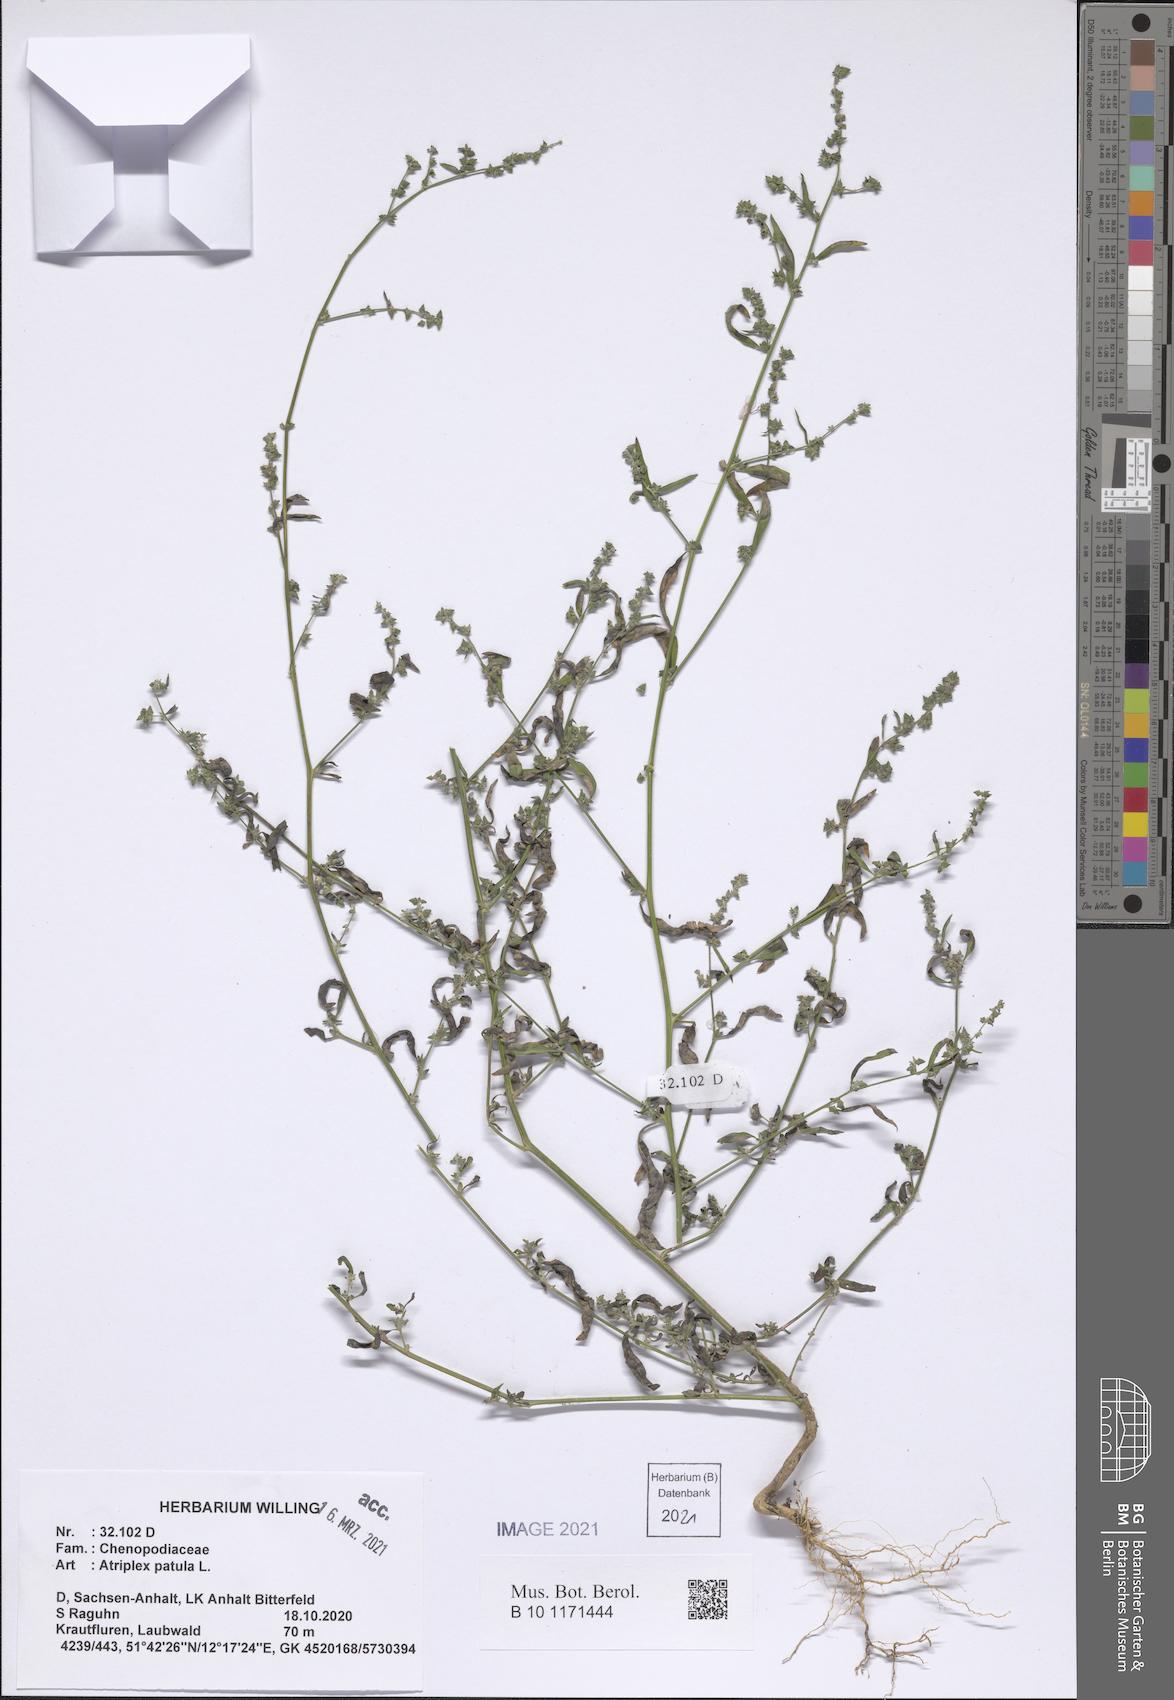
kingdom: Plantae
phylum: Tracheophyta
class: Magnoliopsida
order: Caryophyllales
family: Amaranthaceae
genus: Atriplex
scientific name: Atriplex patula
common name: Common orache
